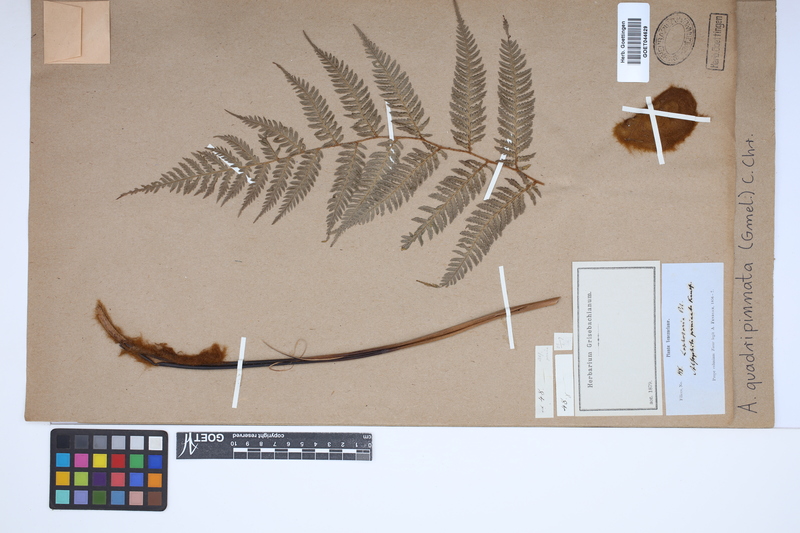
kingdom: Plantae
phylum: Tracheophyta
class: Polypodiopsida
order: Cyatheales
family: Dicksoniaceae
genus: Lophosoria
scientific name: Lophosoria quadripinnata
